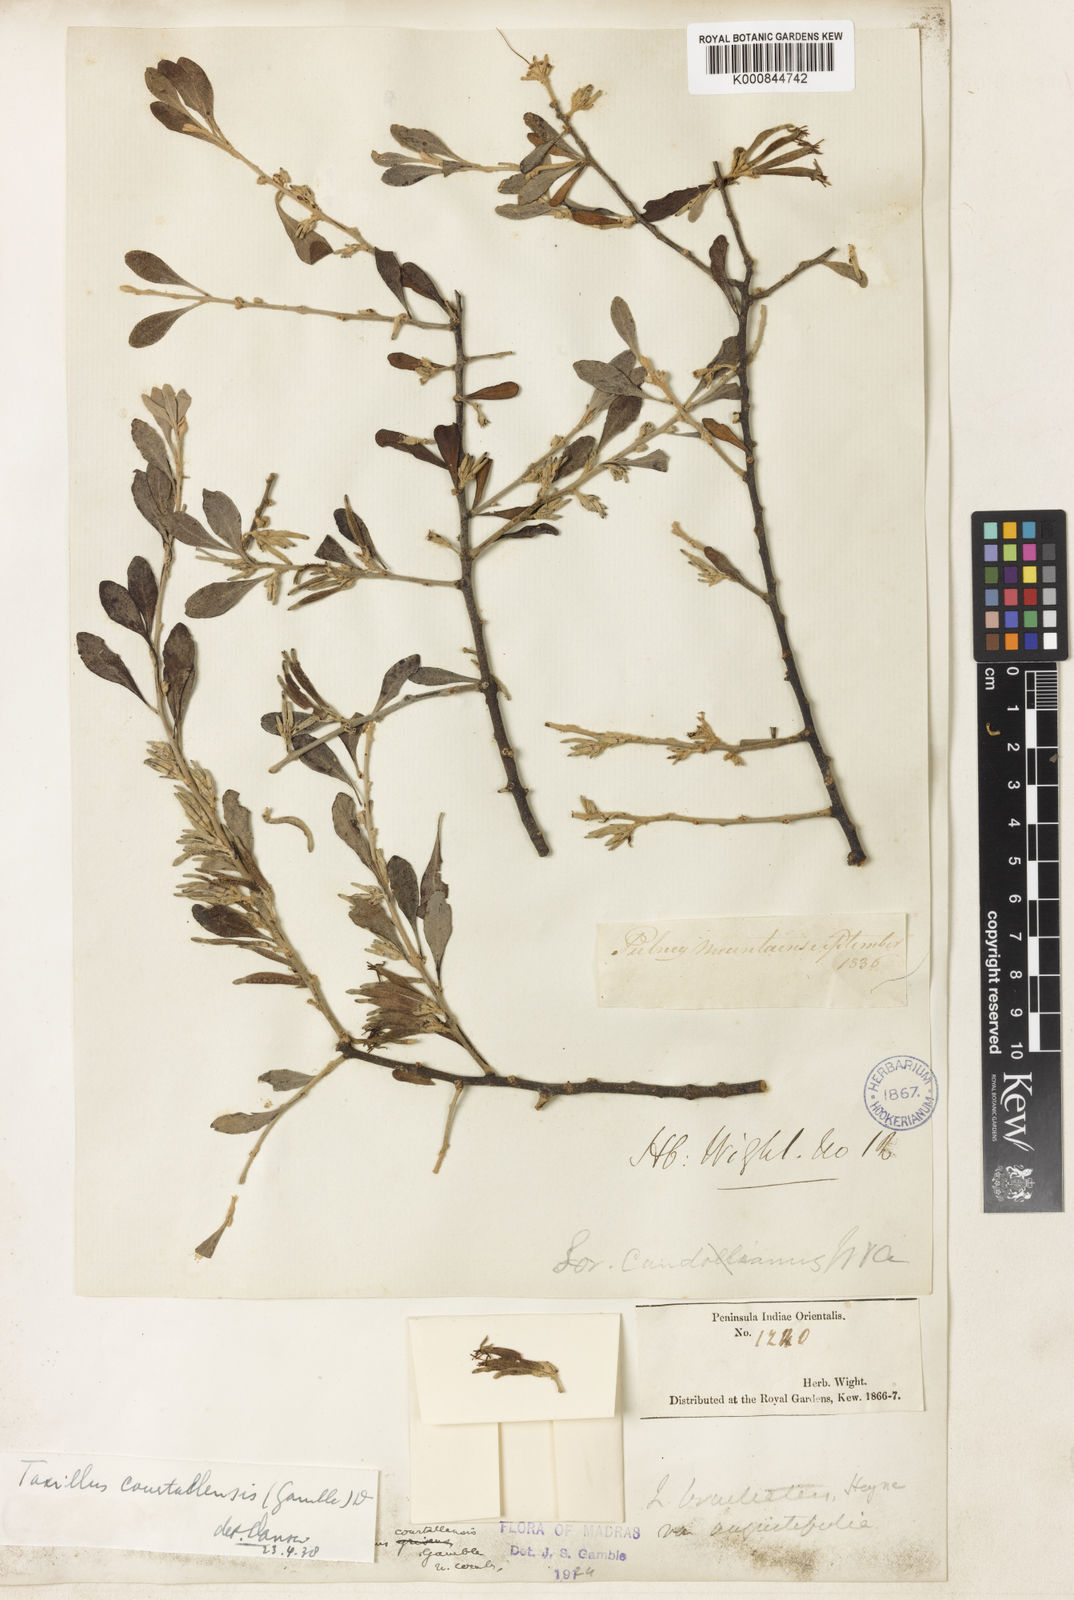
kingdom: Plantae
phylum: Tracheophyta
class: Magnoliopsida
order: Santalales
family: Loranthaceae
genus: Taxillus
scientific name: Taxillus heyneanus
